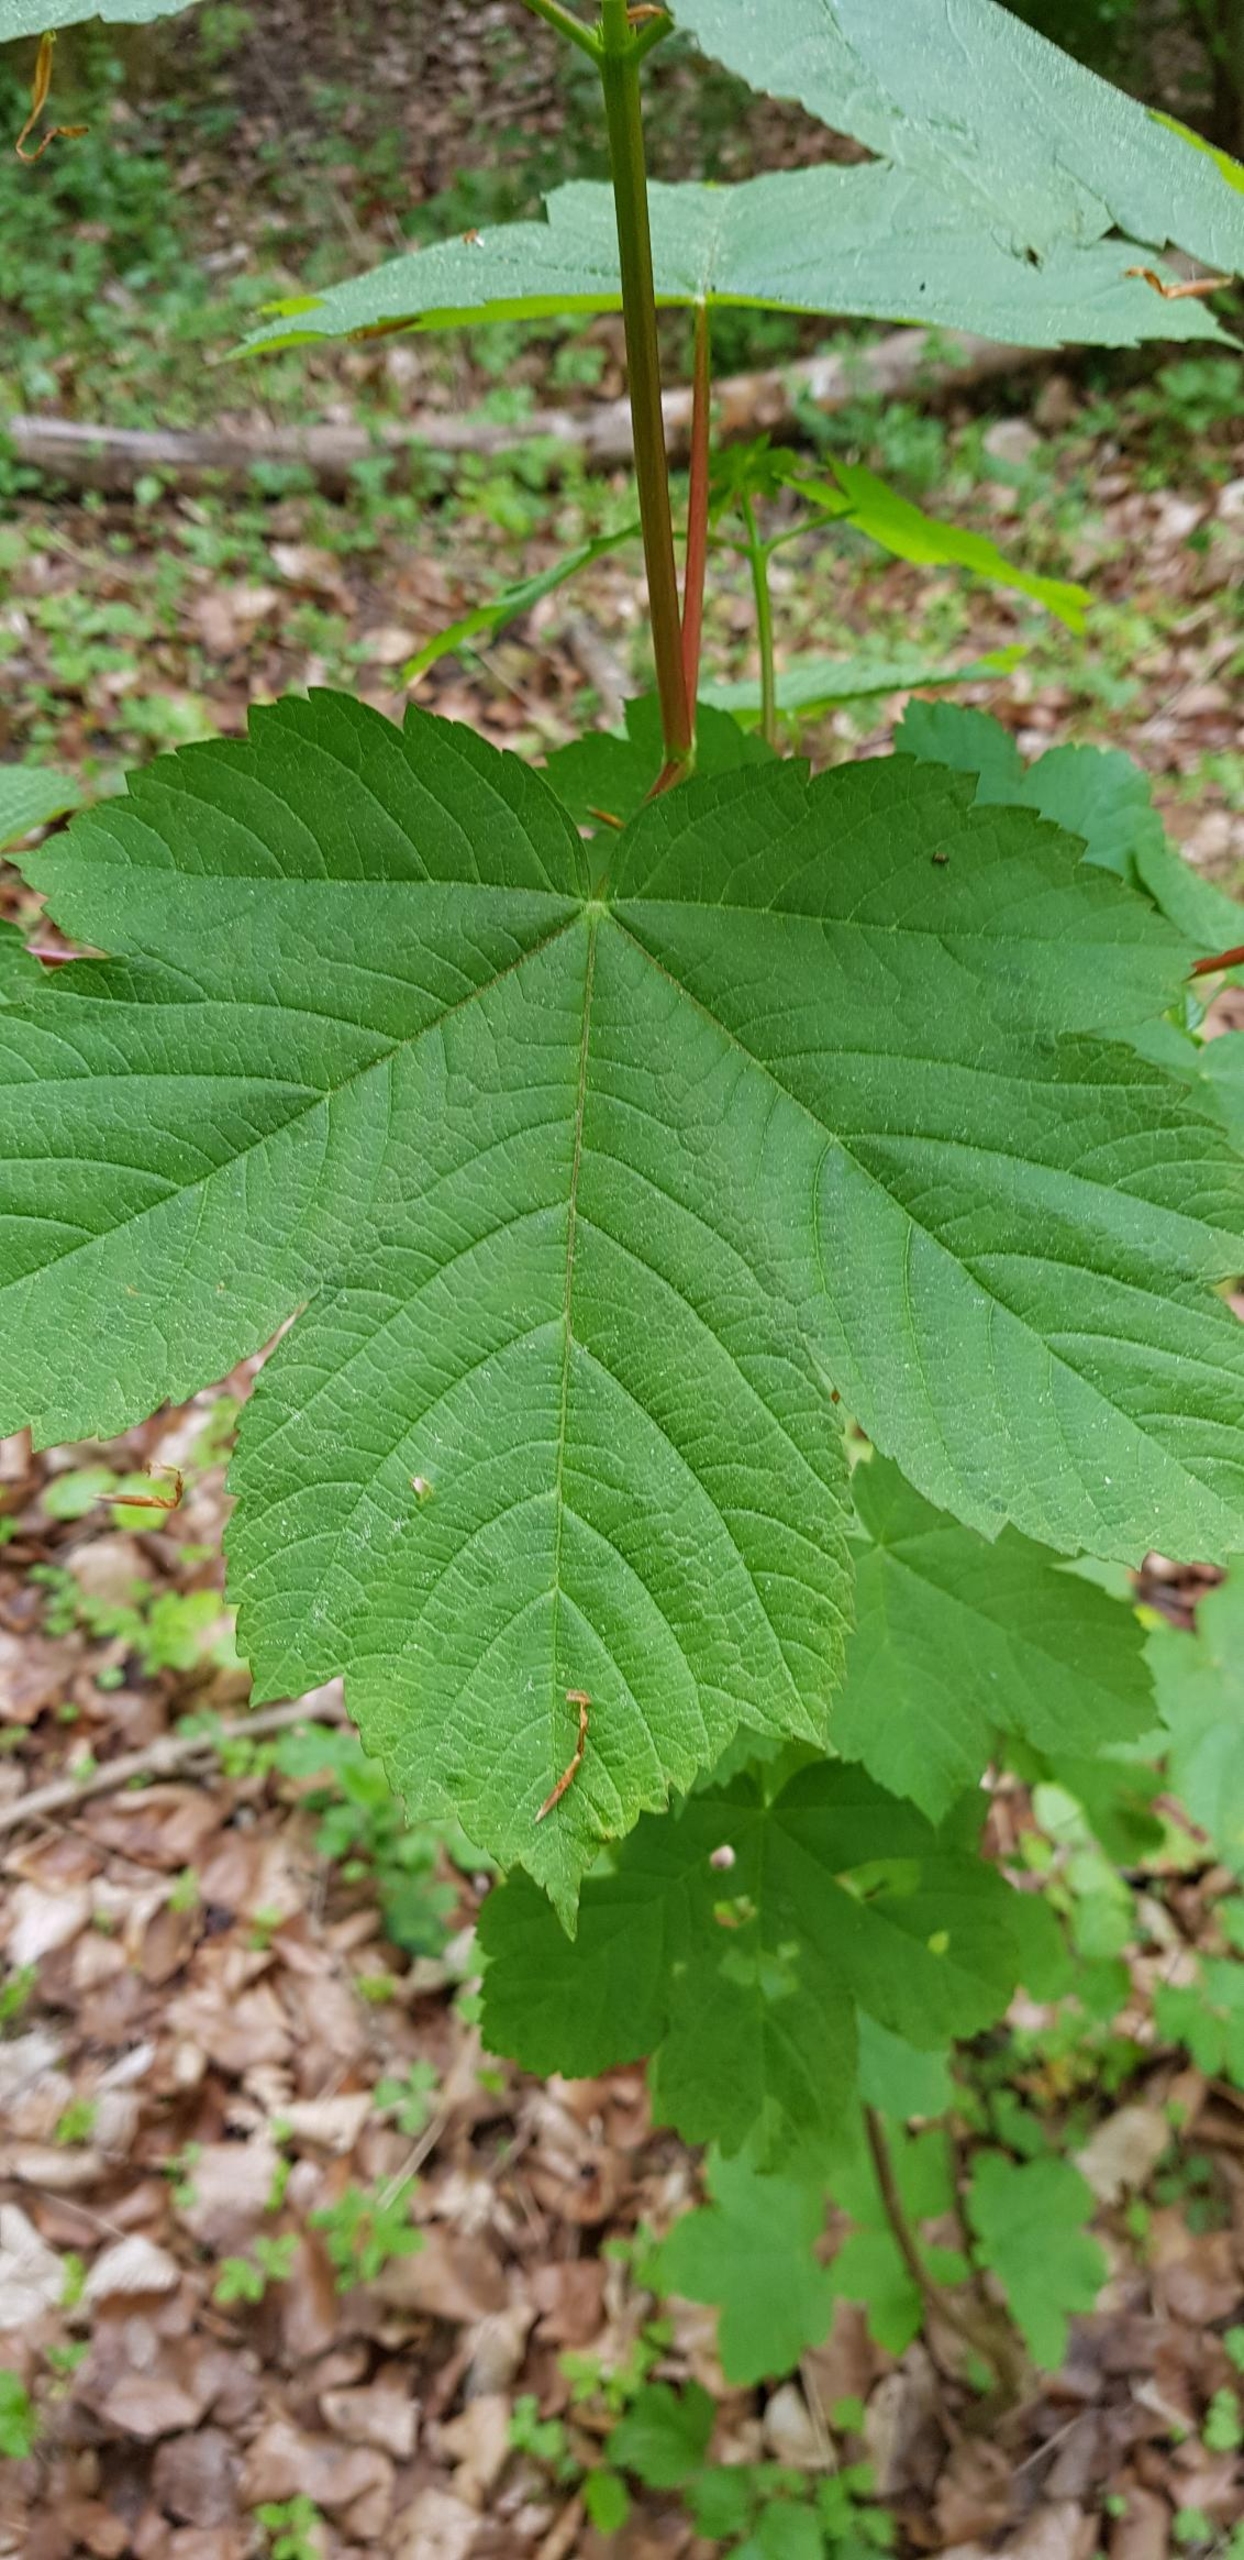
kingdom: Plantae
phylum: Tracheophyta
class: Magnoliopsida
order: Sapindales
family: Sapindaceae
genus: Acer
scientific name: Acer pseudoplatanus
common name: Ahorn
